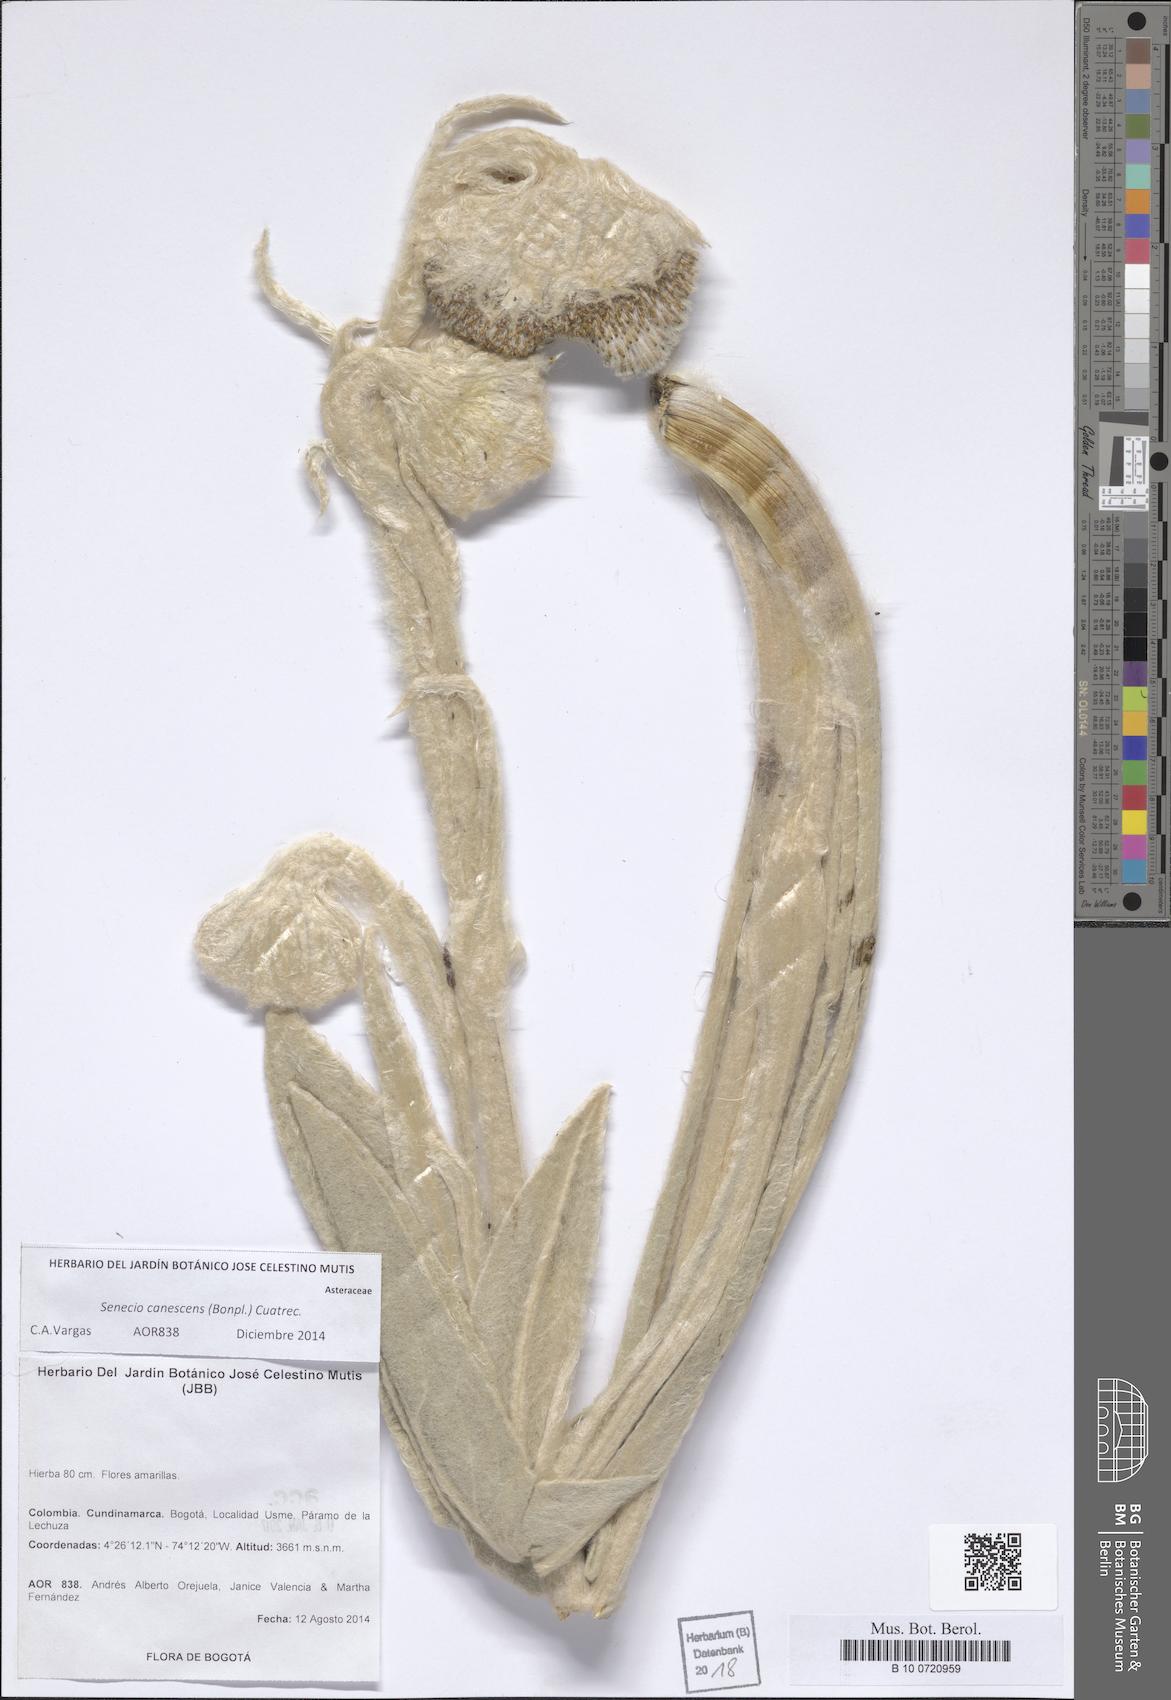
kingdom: Plantae
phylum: Tracheophyta
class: Magnoliopsida
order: Asterales
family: Asteraceae
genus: Culcitium
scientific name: Culcitium canescens
